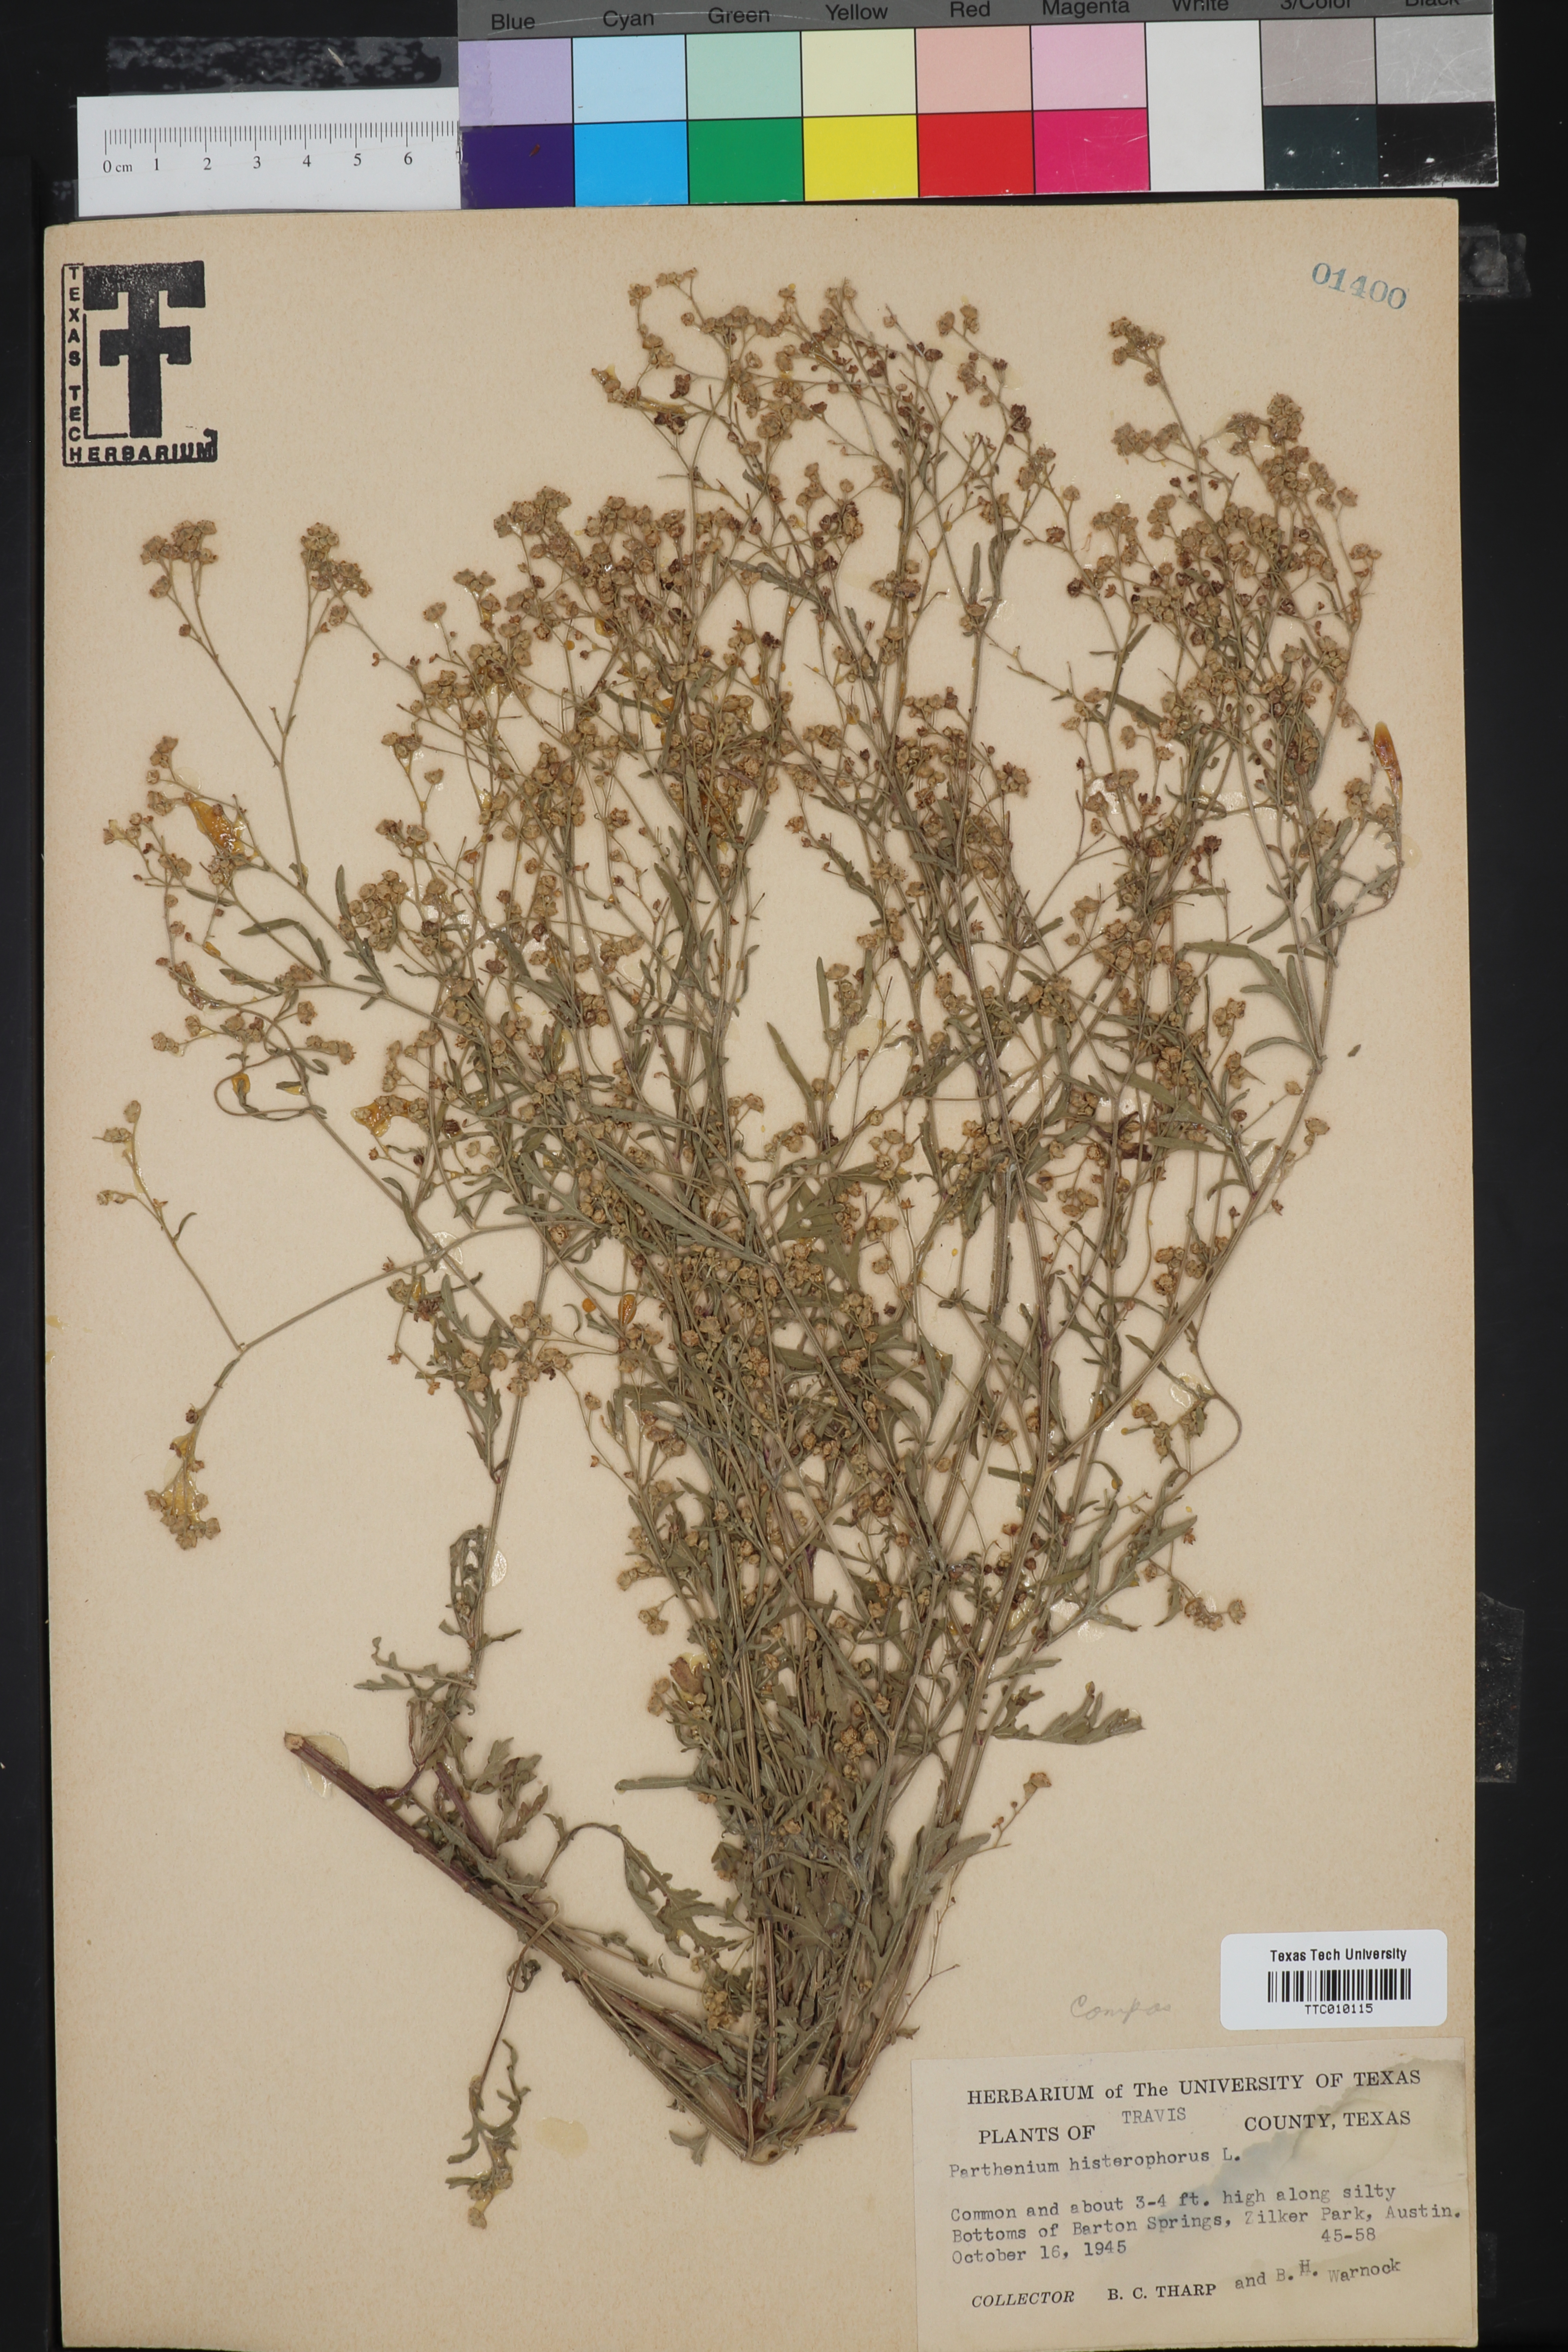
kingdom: Plantae
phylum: Tracheophyta
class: Magnoliopsida
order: Asterales
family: Asteraceae
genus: Parthenium
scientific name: Parthenium hysterophorus
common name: Santa maria feverfew
